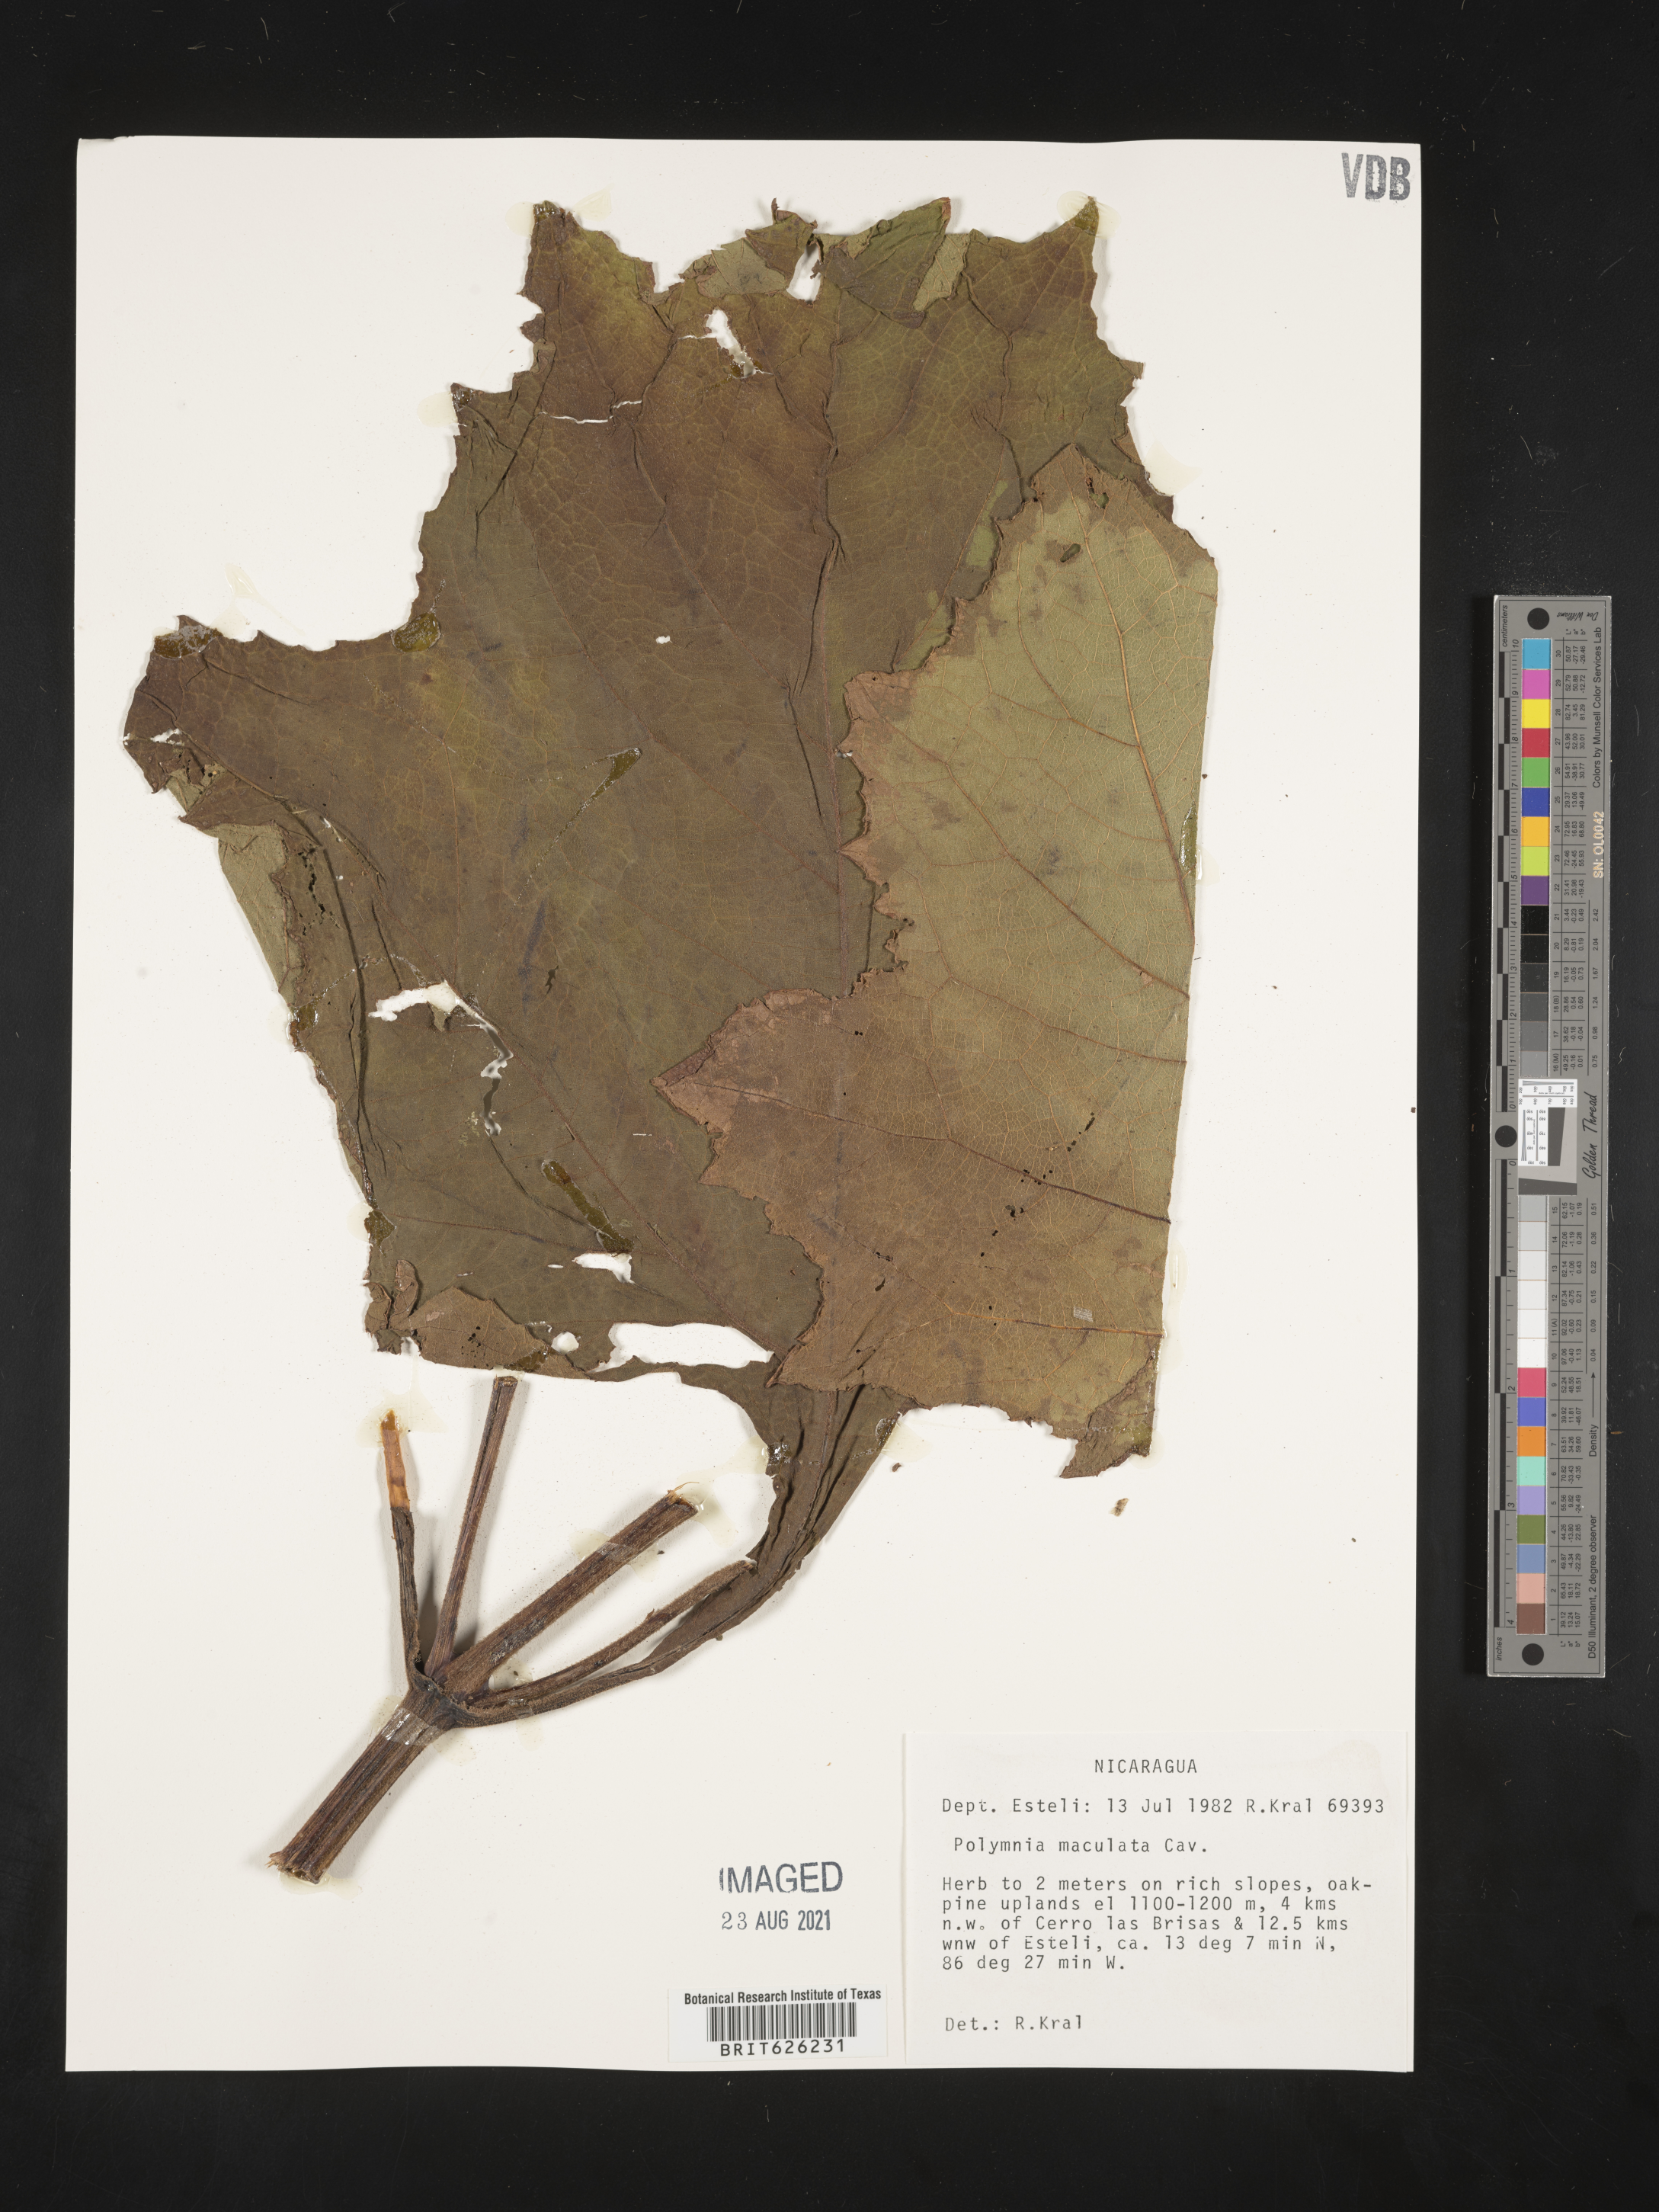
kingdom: Plantae
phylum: Tracheophyta
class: Magnoliopsida
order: Asterales
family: Asteraceae
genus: Smallanthus
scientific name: Smallanthus maculatus
